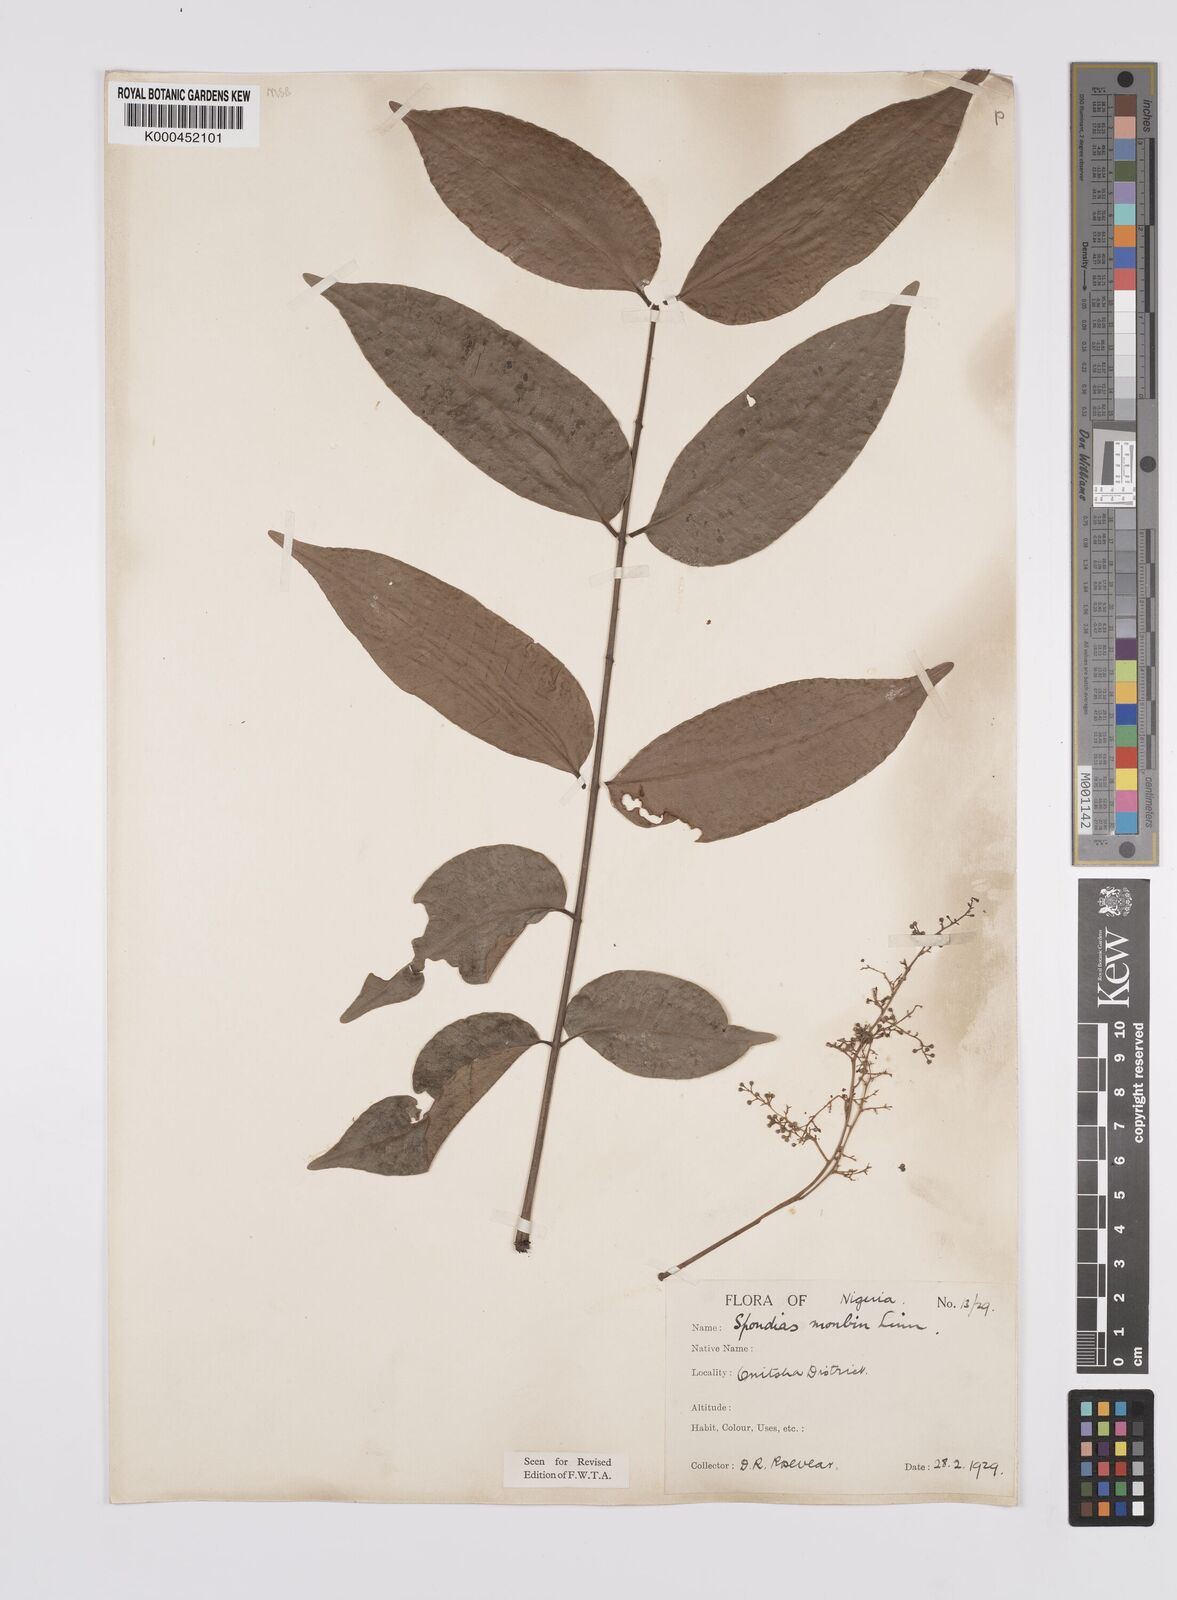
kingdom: Plantae
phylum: Tracheophyta
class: Magnoliopsida
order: Sapindales
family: Anacardiaceae
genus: Spondias
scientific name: Spondias mombin
